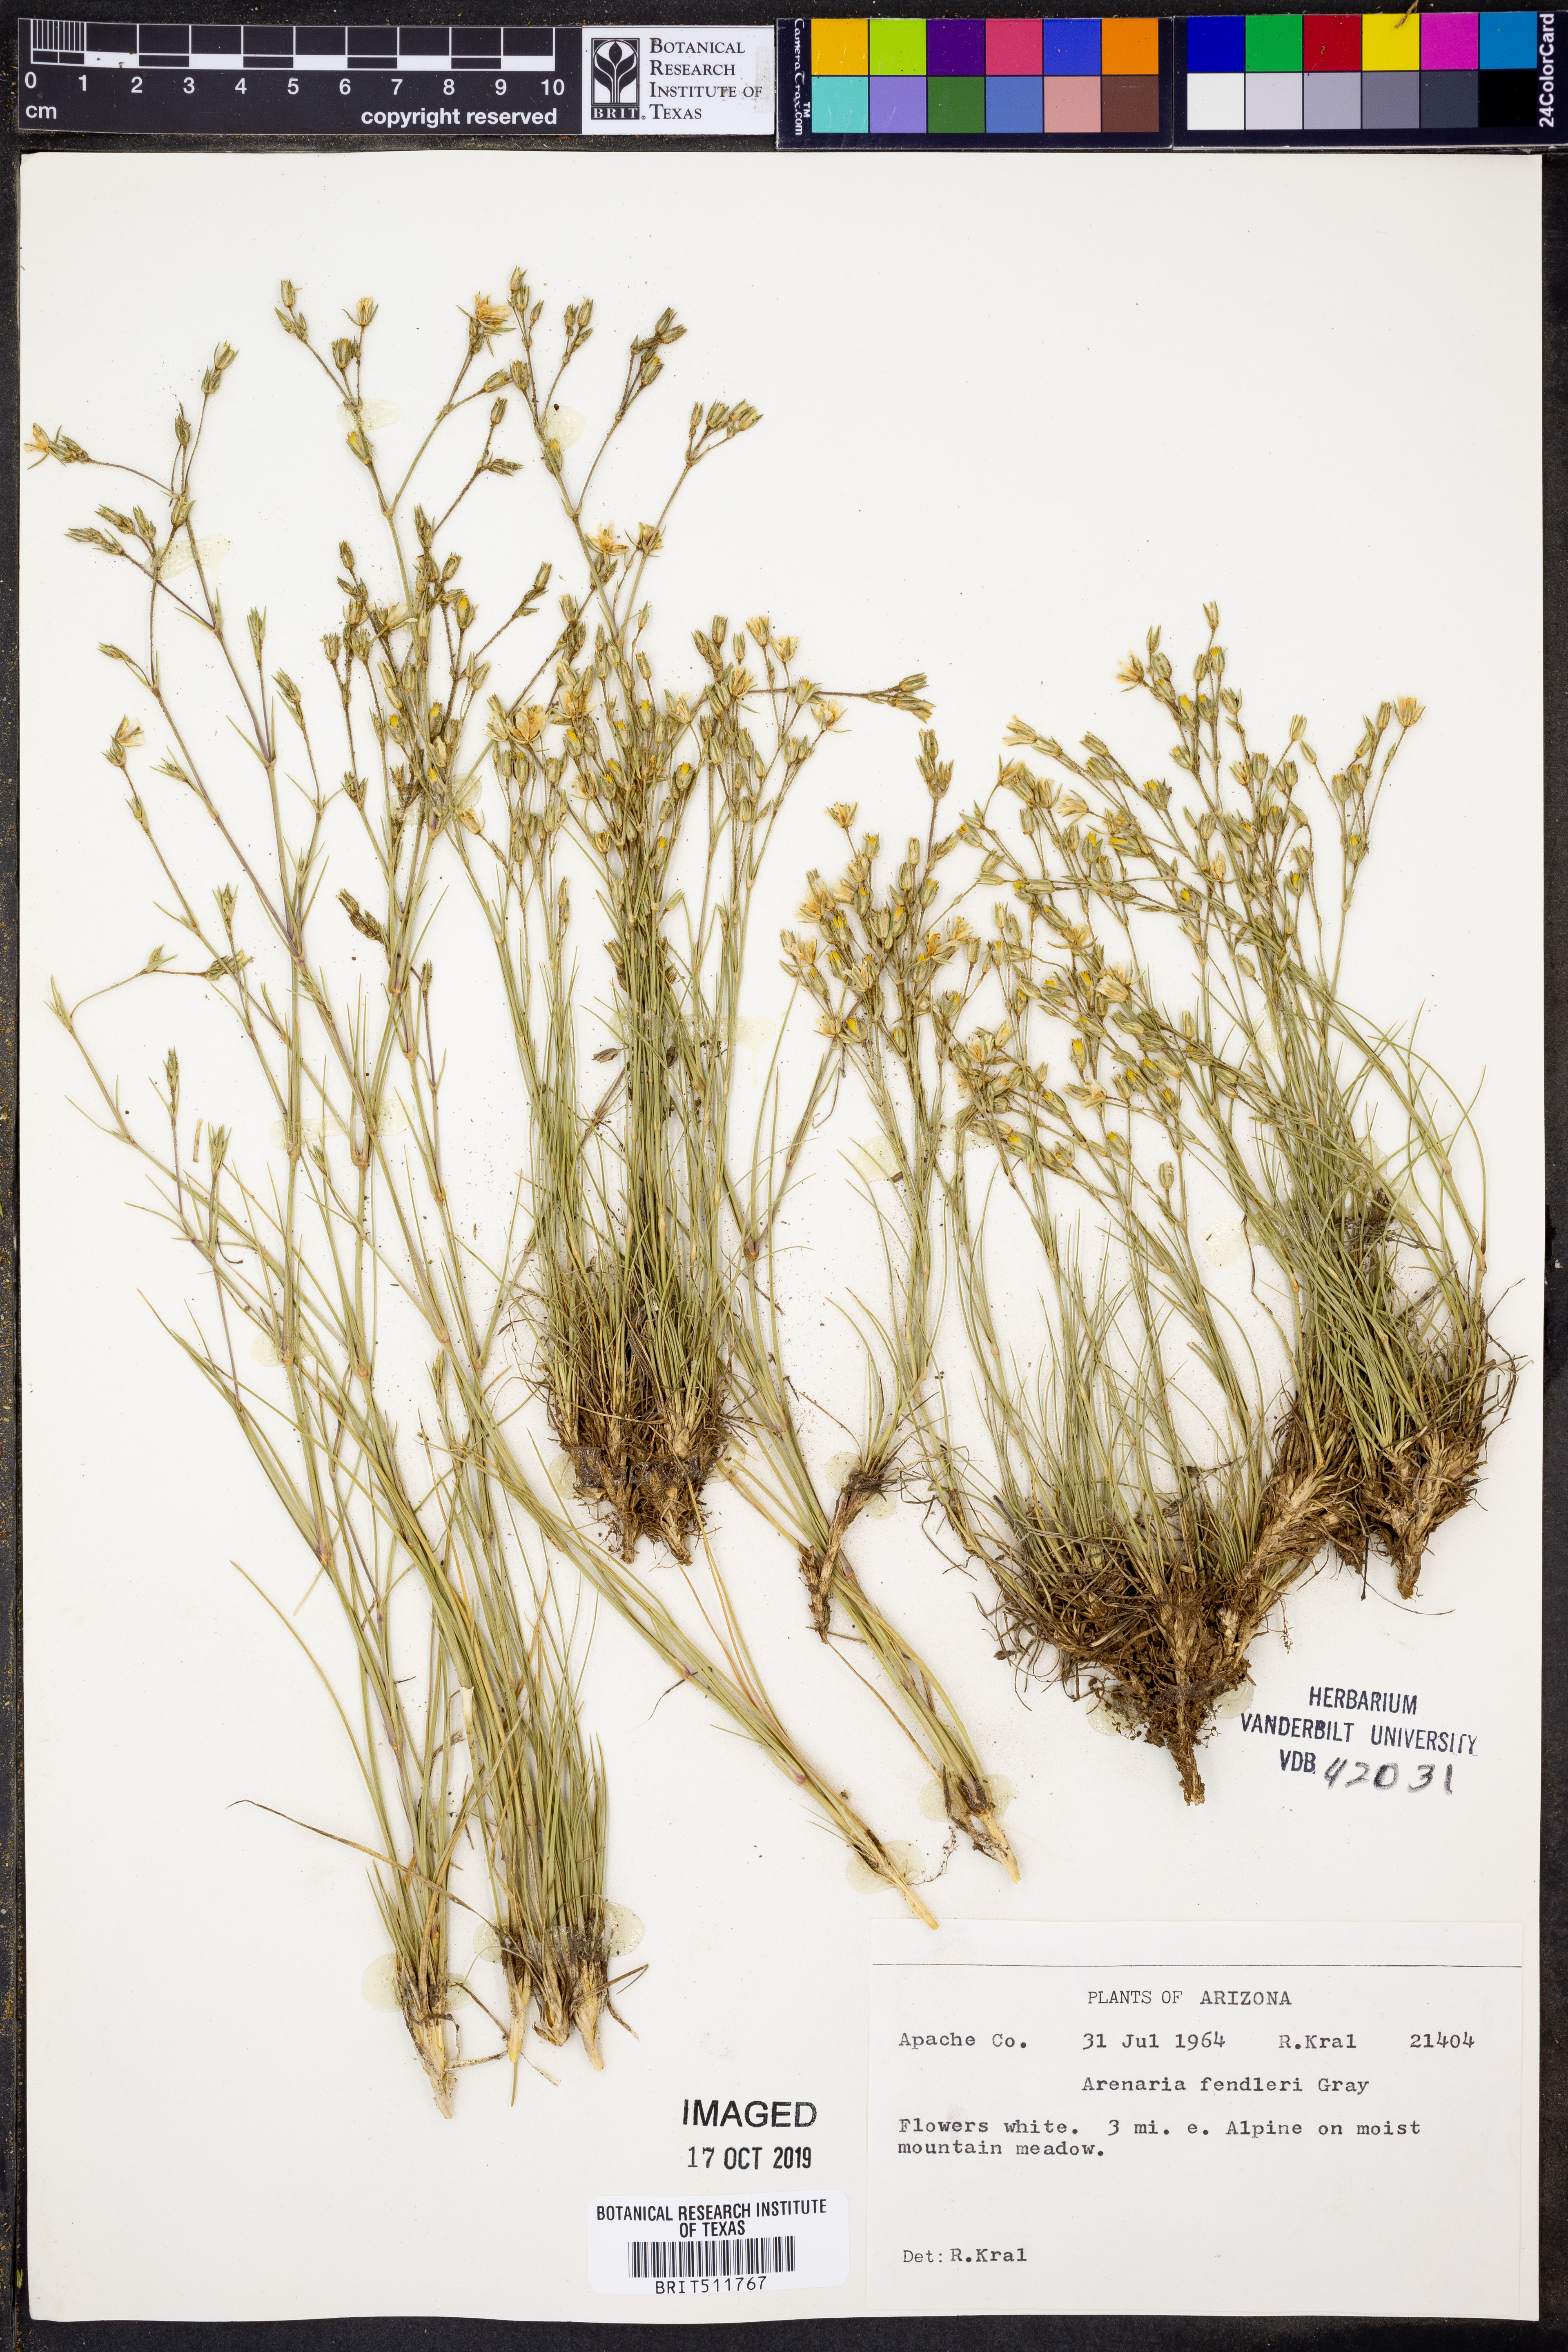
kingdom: Plantae
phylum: Tracheophyta
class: Magnoliopsida
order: Caryophyllales
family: Caryophyllaceae
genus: Eremogone
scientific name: Eremogone fendleri
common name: Fendler's sandwort
